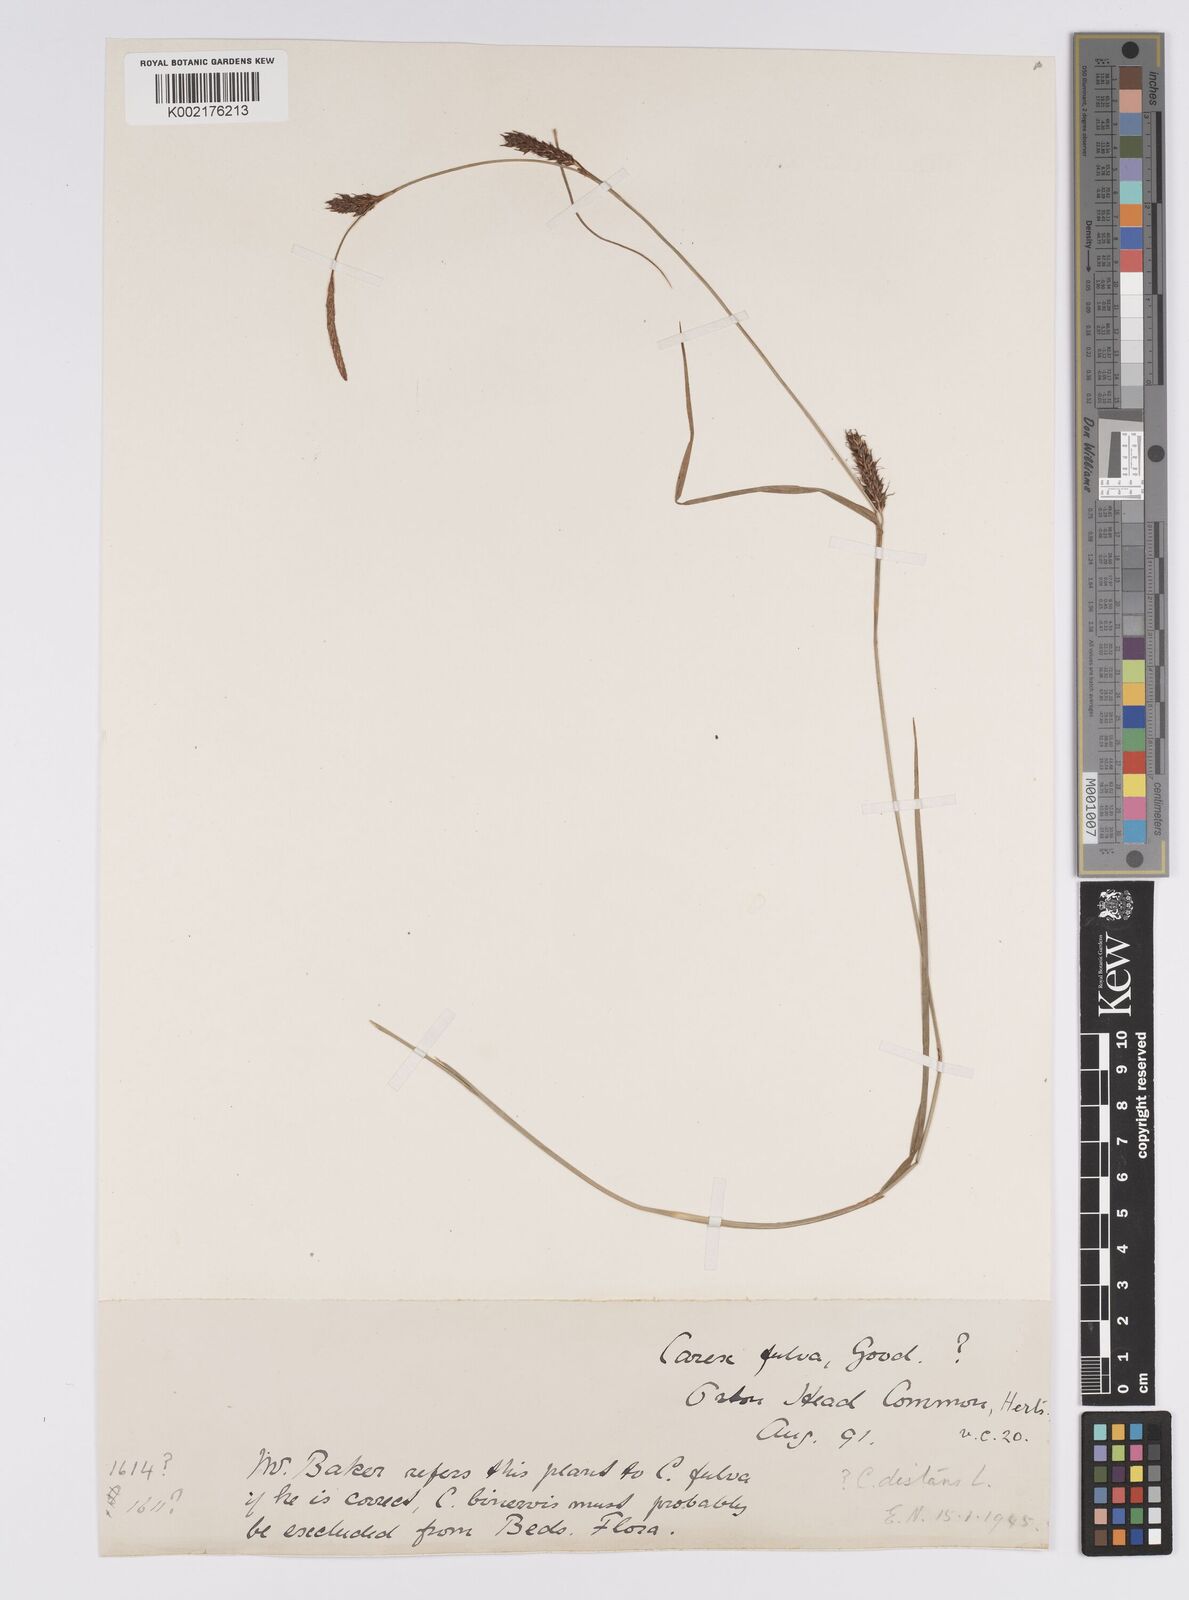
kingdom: Plantae
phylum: Tracheophyta
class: Liliopsida
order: Poales
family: Cyperaceae
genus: Carex
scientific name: Carex distans
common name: Distant sedge
